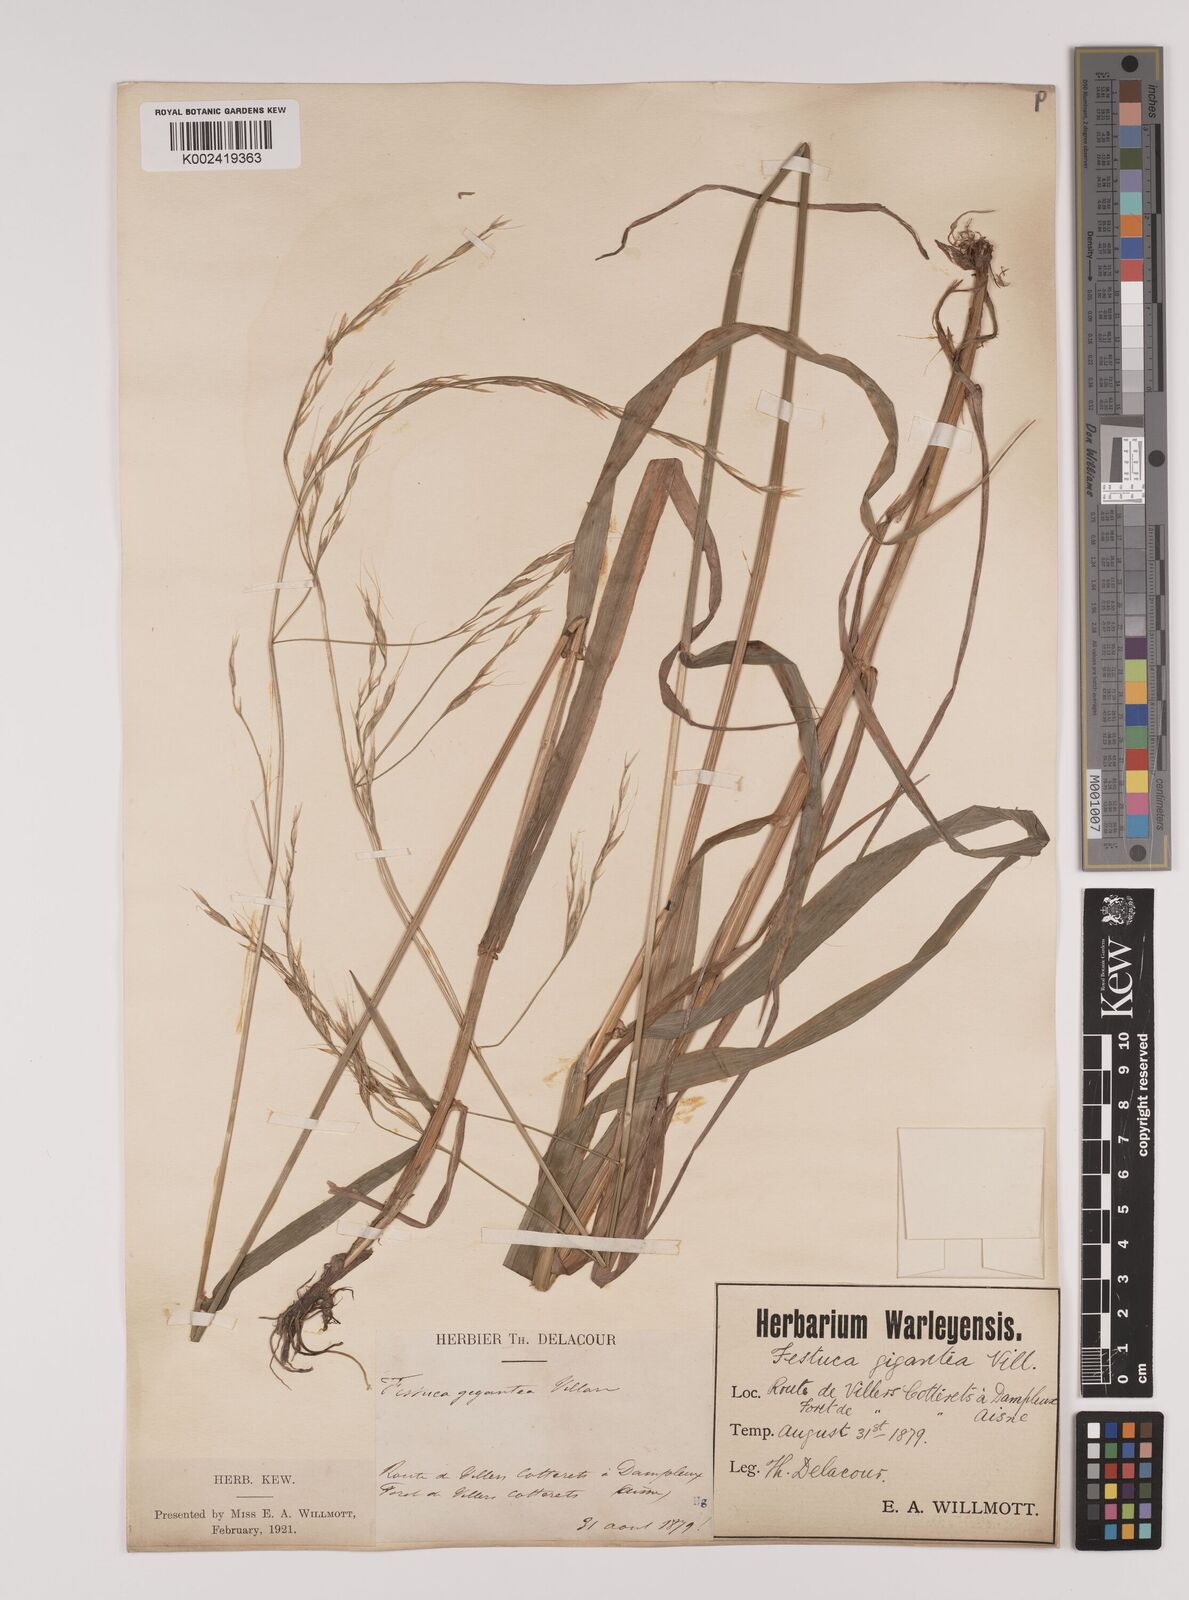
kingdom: Plantae
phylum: Tracheophyta
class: Liliopsida
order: Poales
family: Poaceae
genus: Lolium
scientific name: Lolium giganteum
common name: Giant fescue
